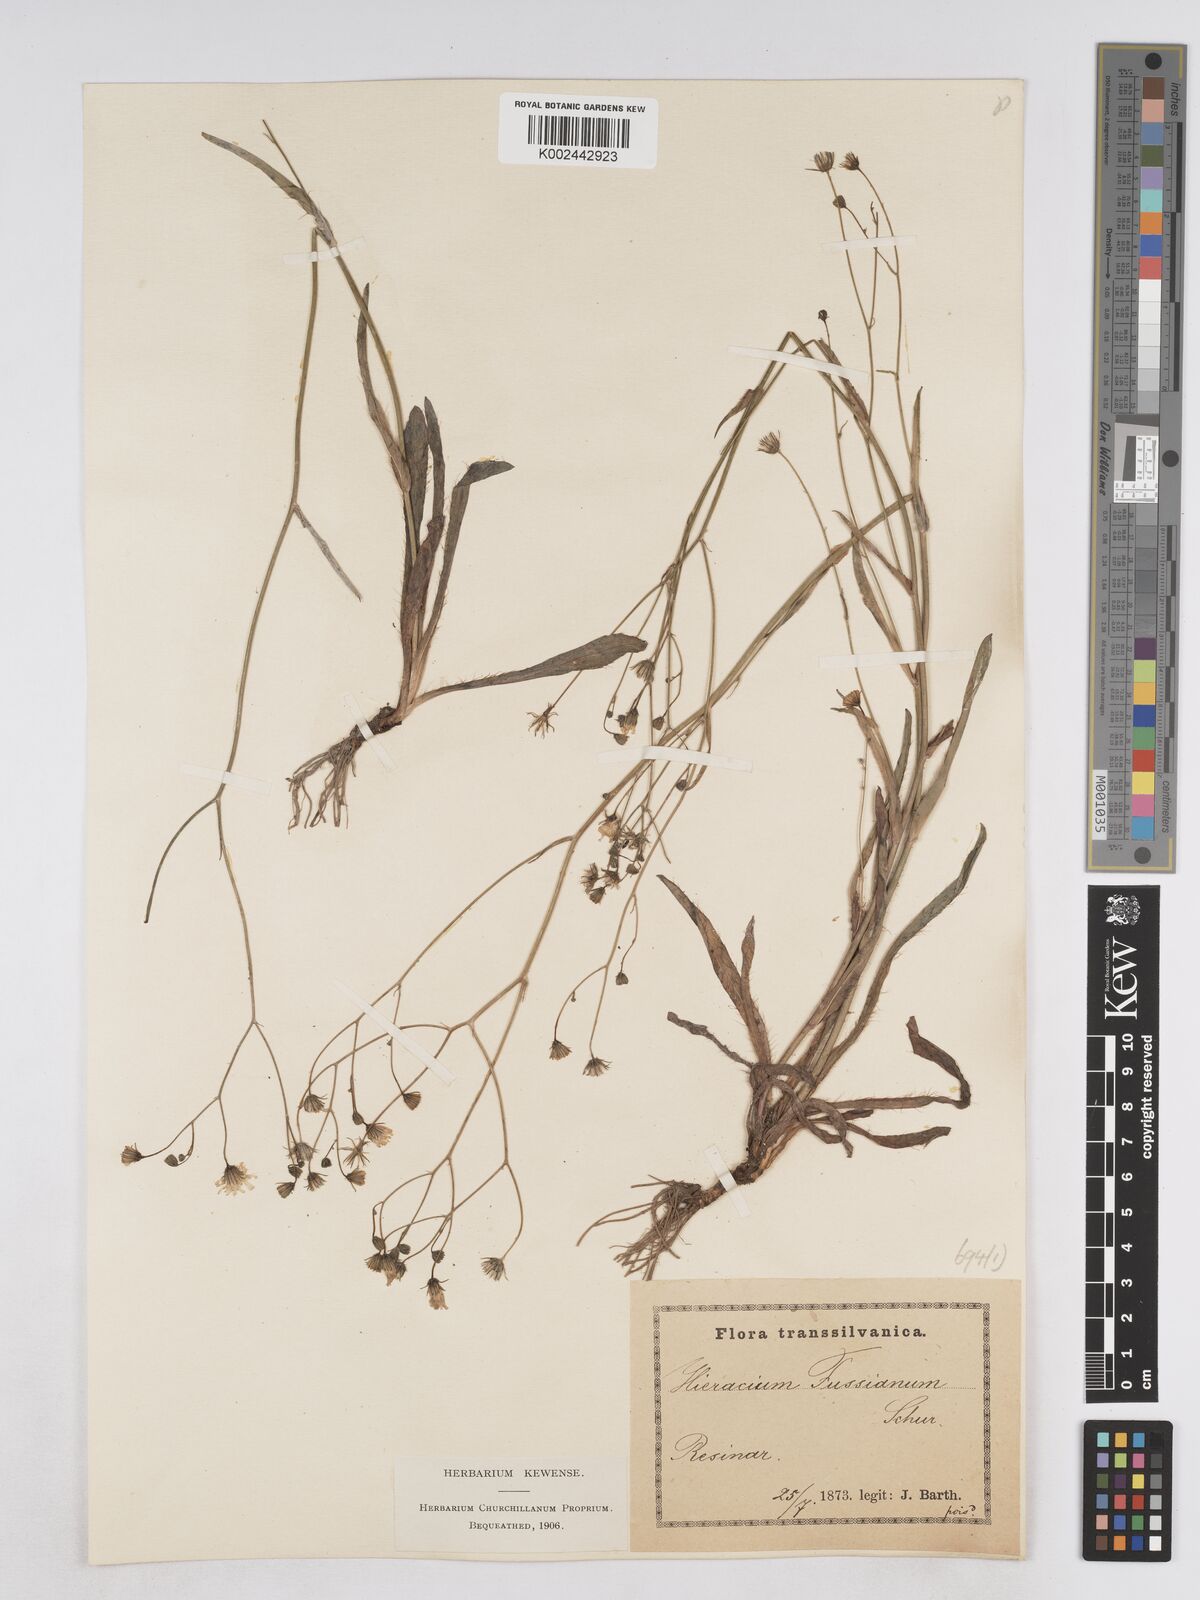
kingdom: Plantae
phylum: Tracheophyta
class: Magnoliopsida
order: Asterales
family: Asteraceae
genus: Pilosella
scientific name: Pilosella pavichii
